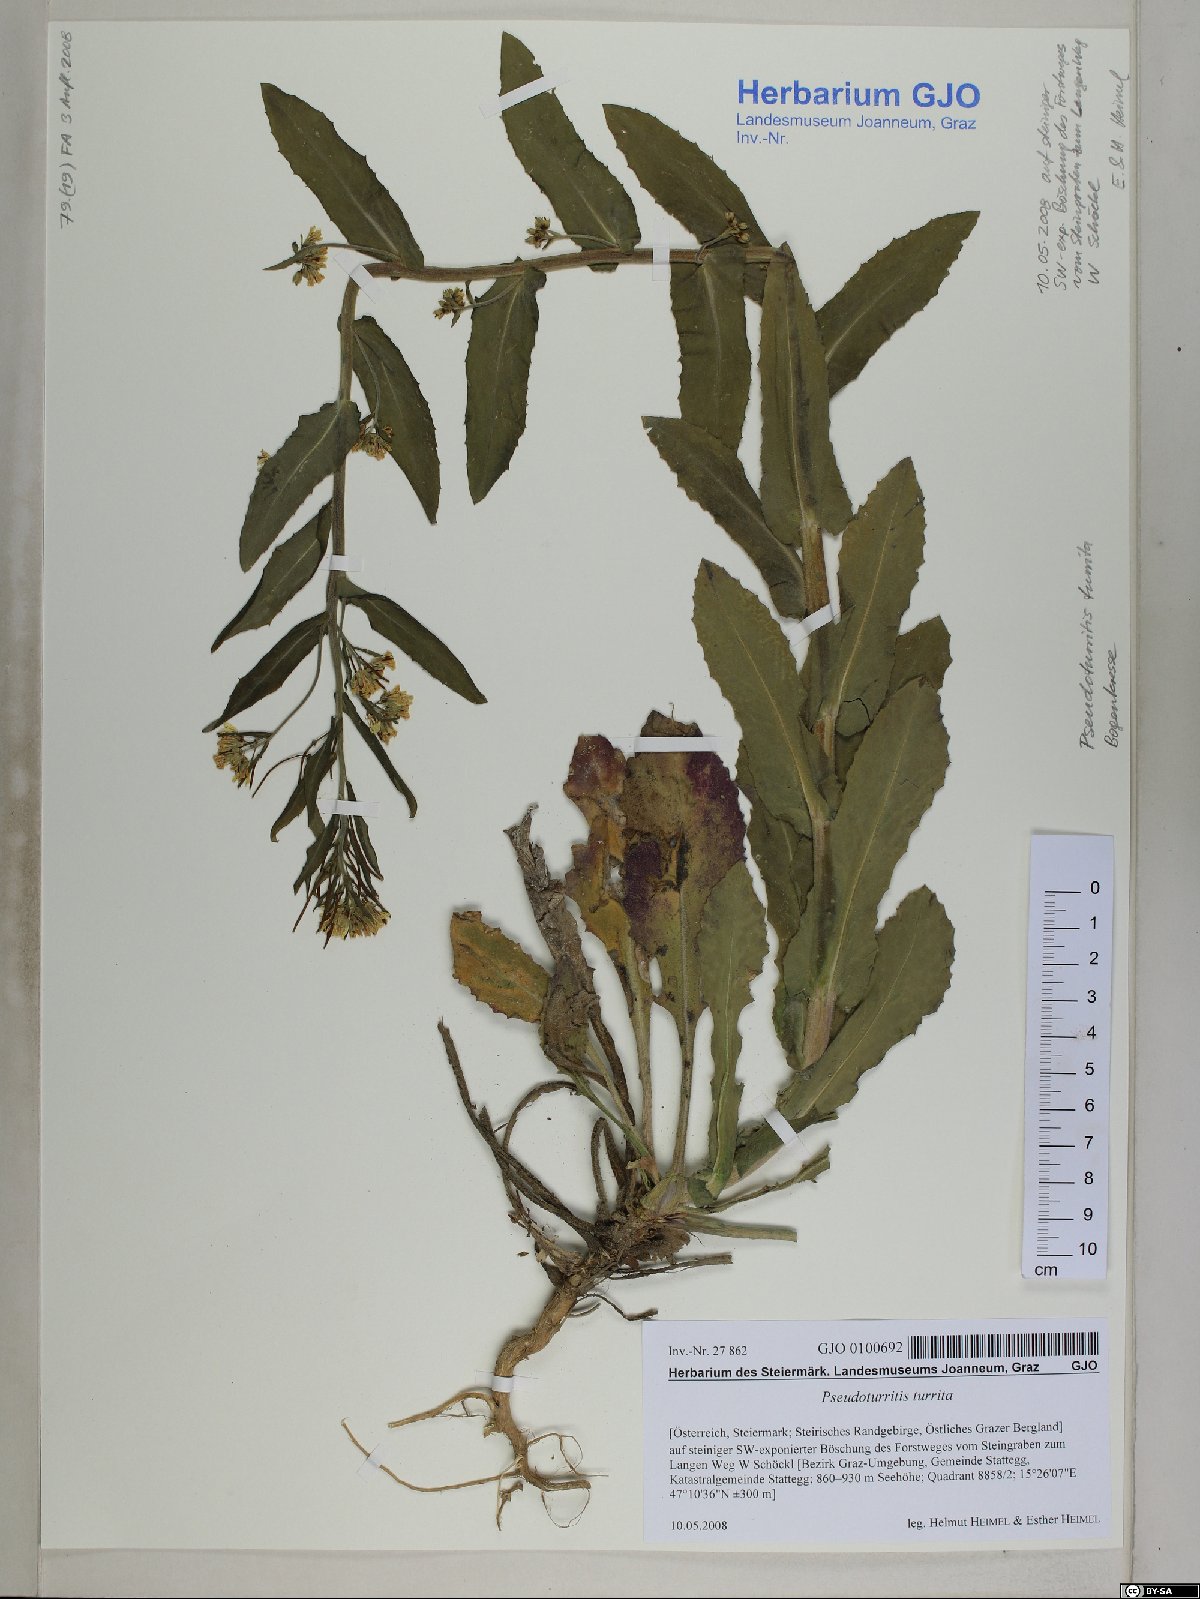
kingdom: Plantae
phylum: Tracheophyta
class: Magnoliopsida
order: Brassicales
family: Brassicaceae
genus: Pseudoturritis
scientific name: Pseudoturritis turrita
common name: Tower cress
